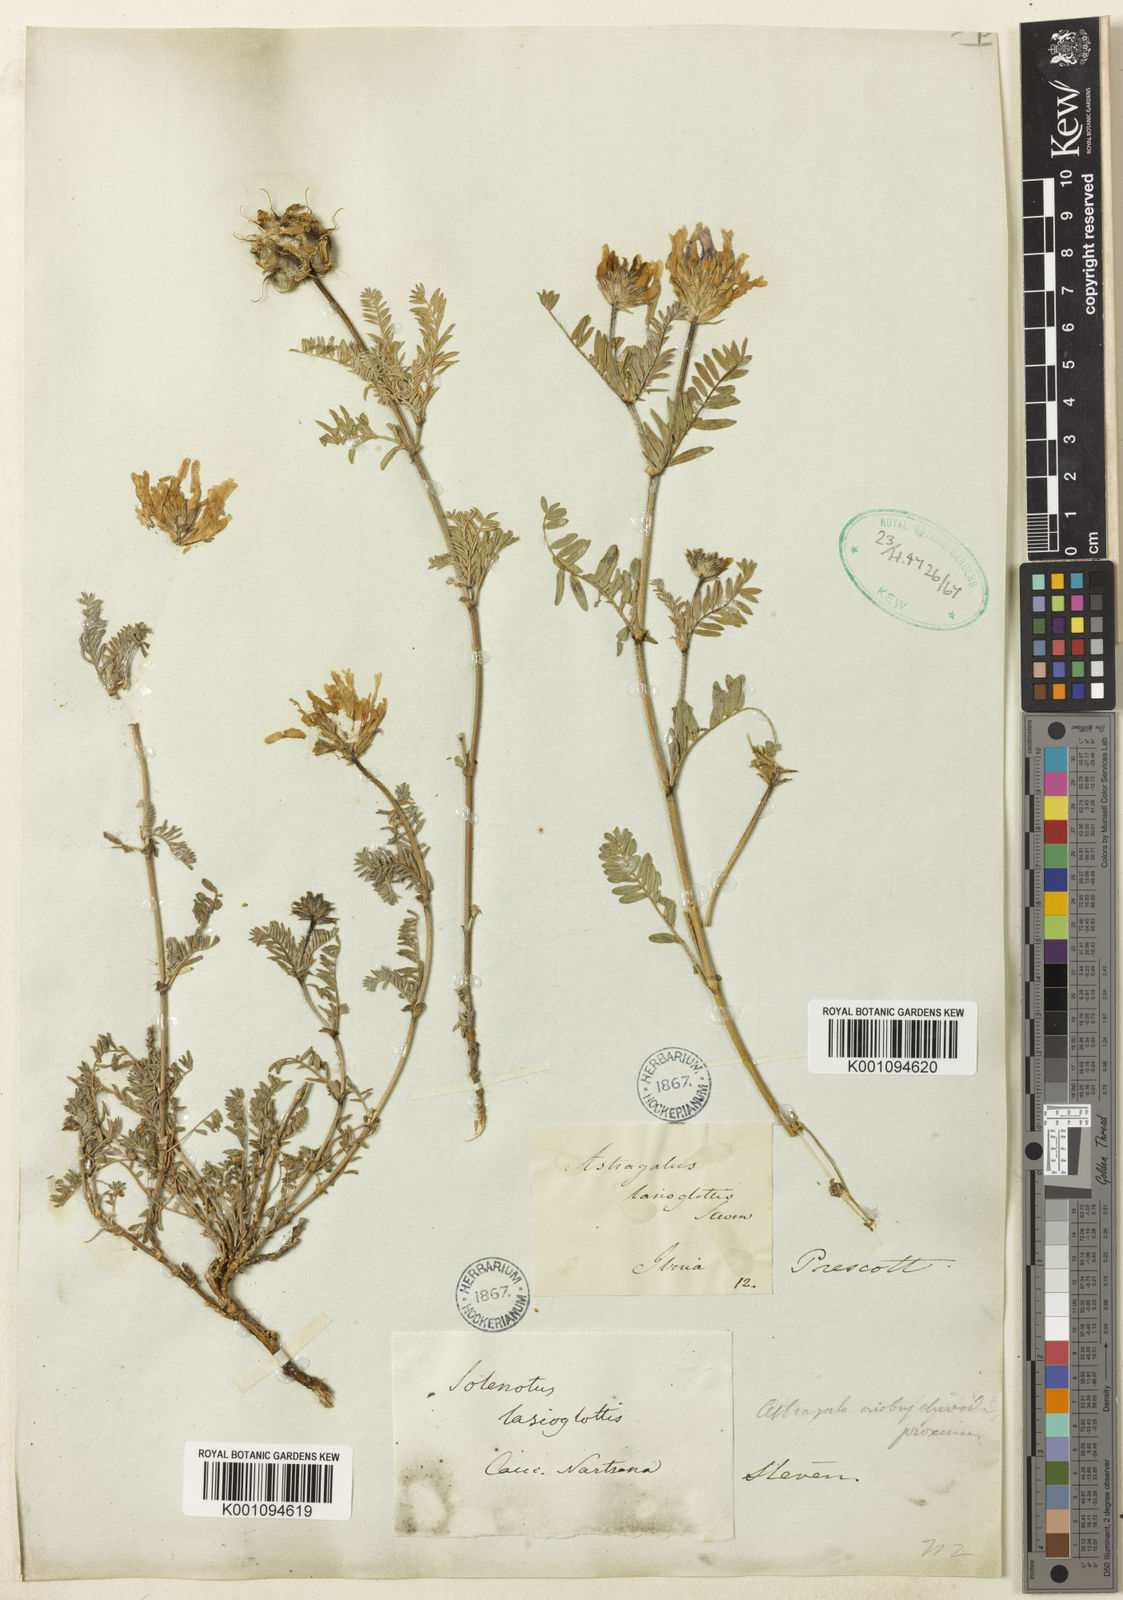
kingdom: Plantae
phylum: Tracheophyta
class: Magnoliopsida
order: Fabales
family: Fabaceae
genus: Astragalus
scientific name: Astragalus
